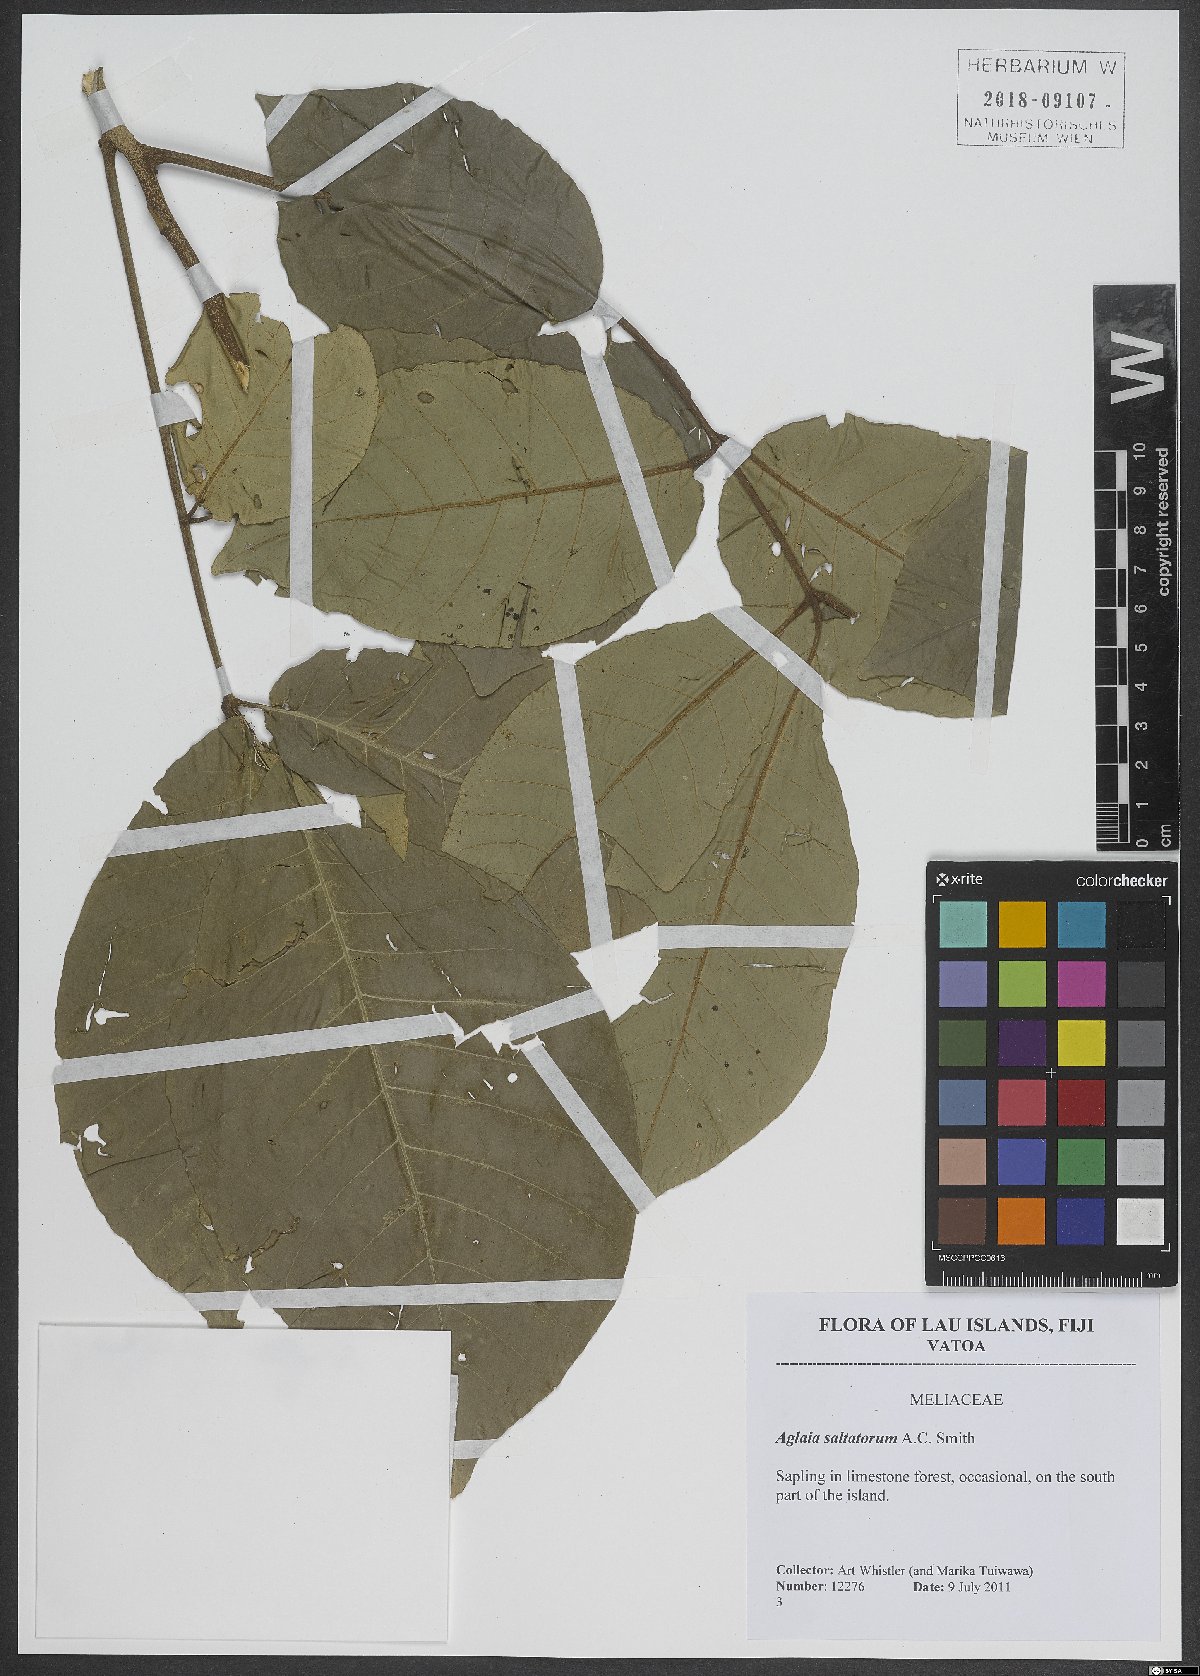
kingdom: Plantae
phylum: Tracheophyta
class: Magnoliopsida
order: Sapindales
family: Meliaceae
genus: Aglaia
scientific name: Aglaia saltatorum
